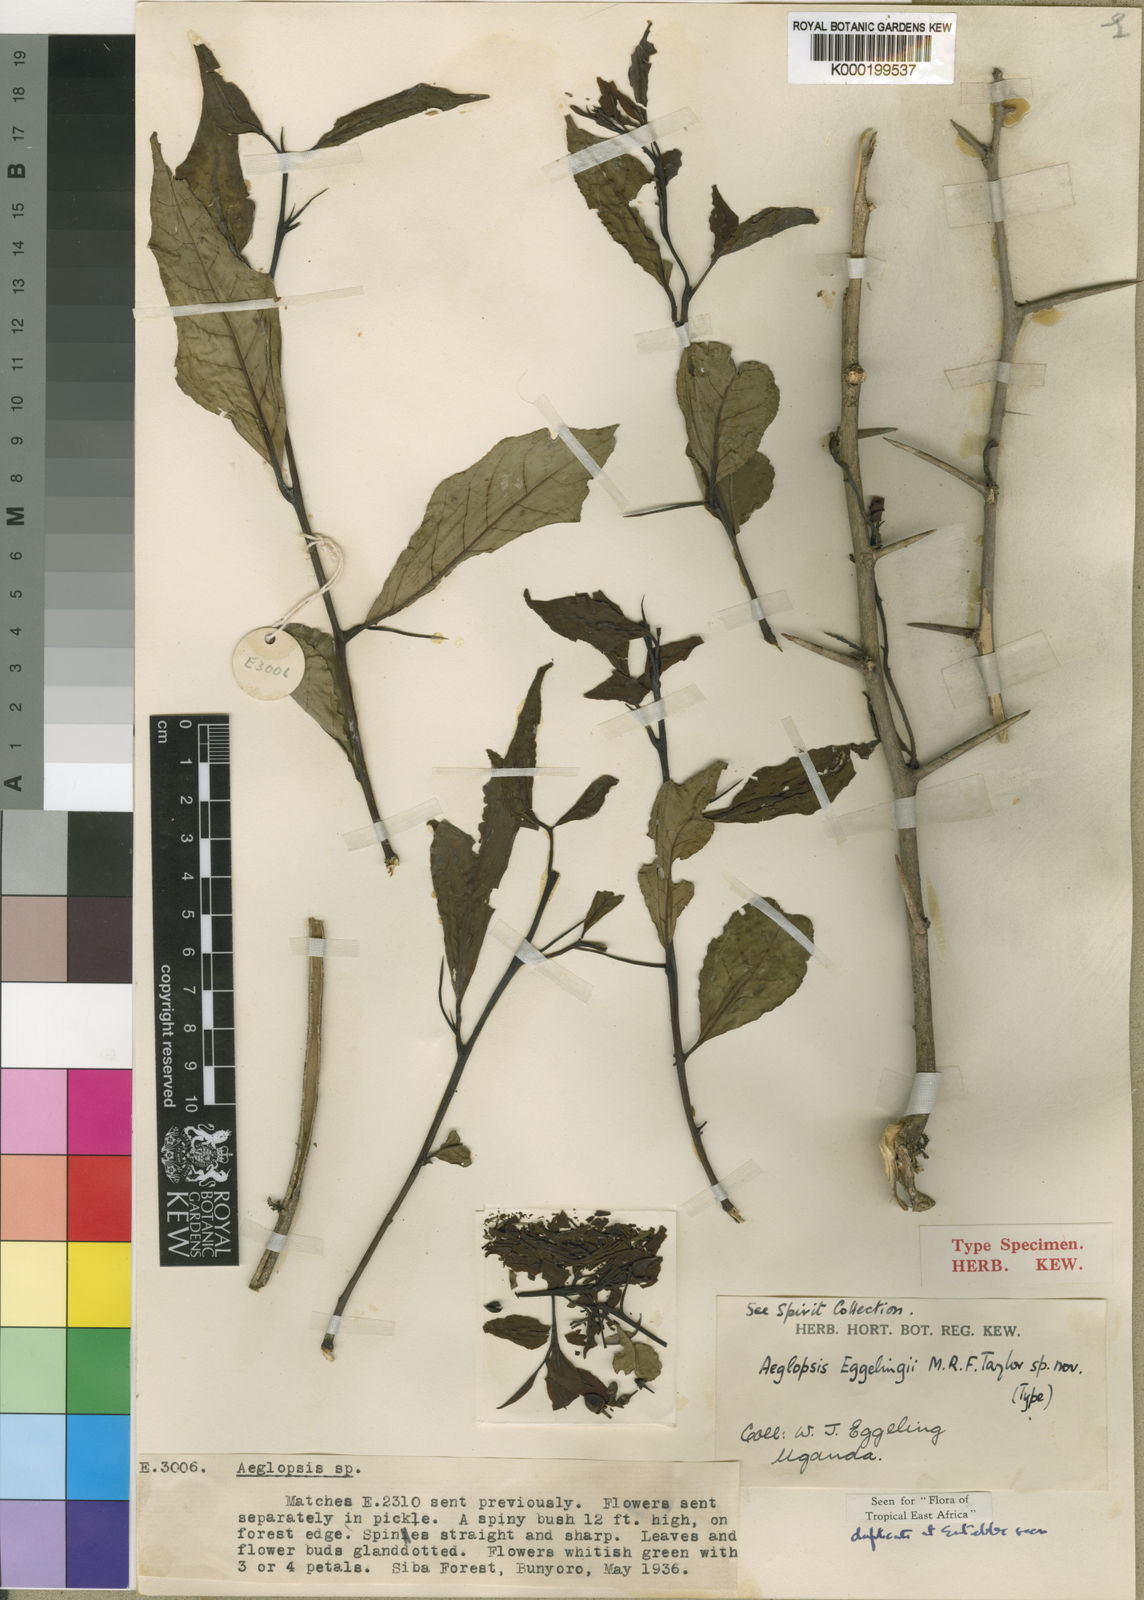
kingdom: Plantae
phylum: Tracheophyta
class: Magnoliopsida
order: Sapindales
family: Rutaceae
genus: Aeglopsis
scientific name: Aeglopsis eggelingii
